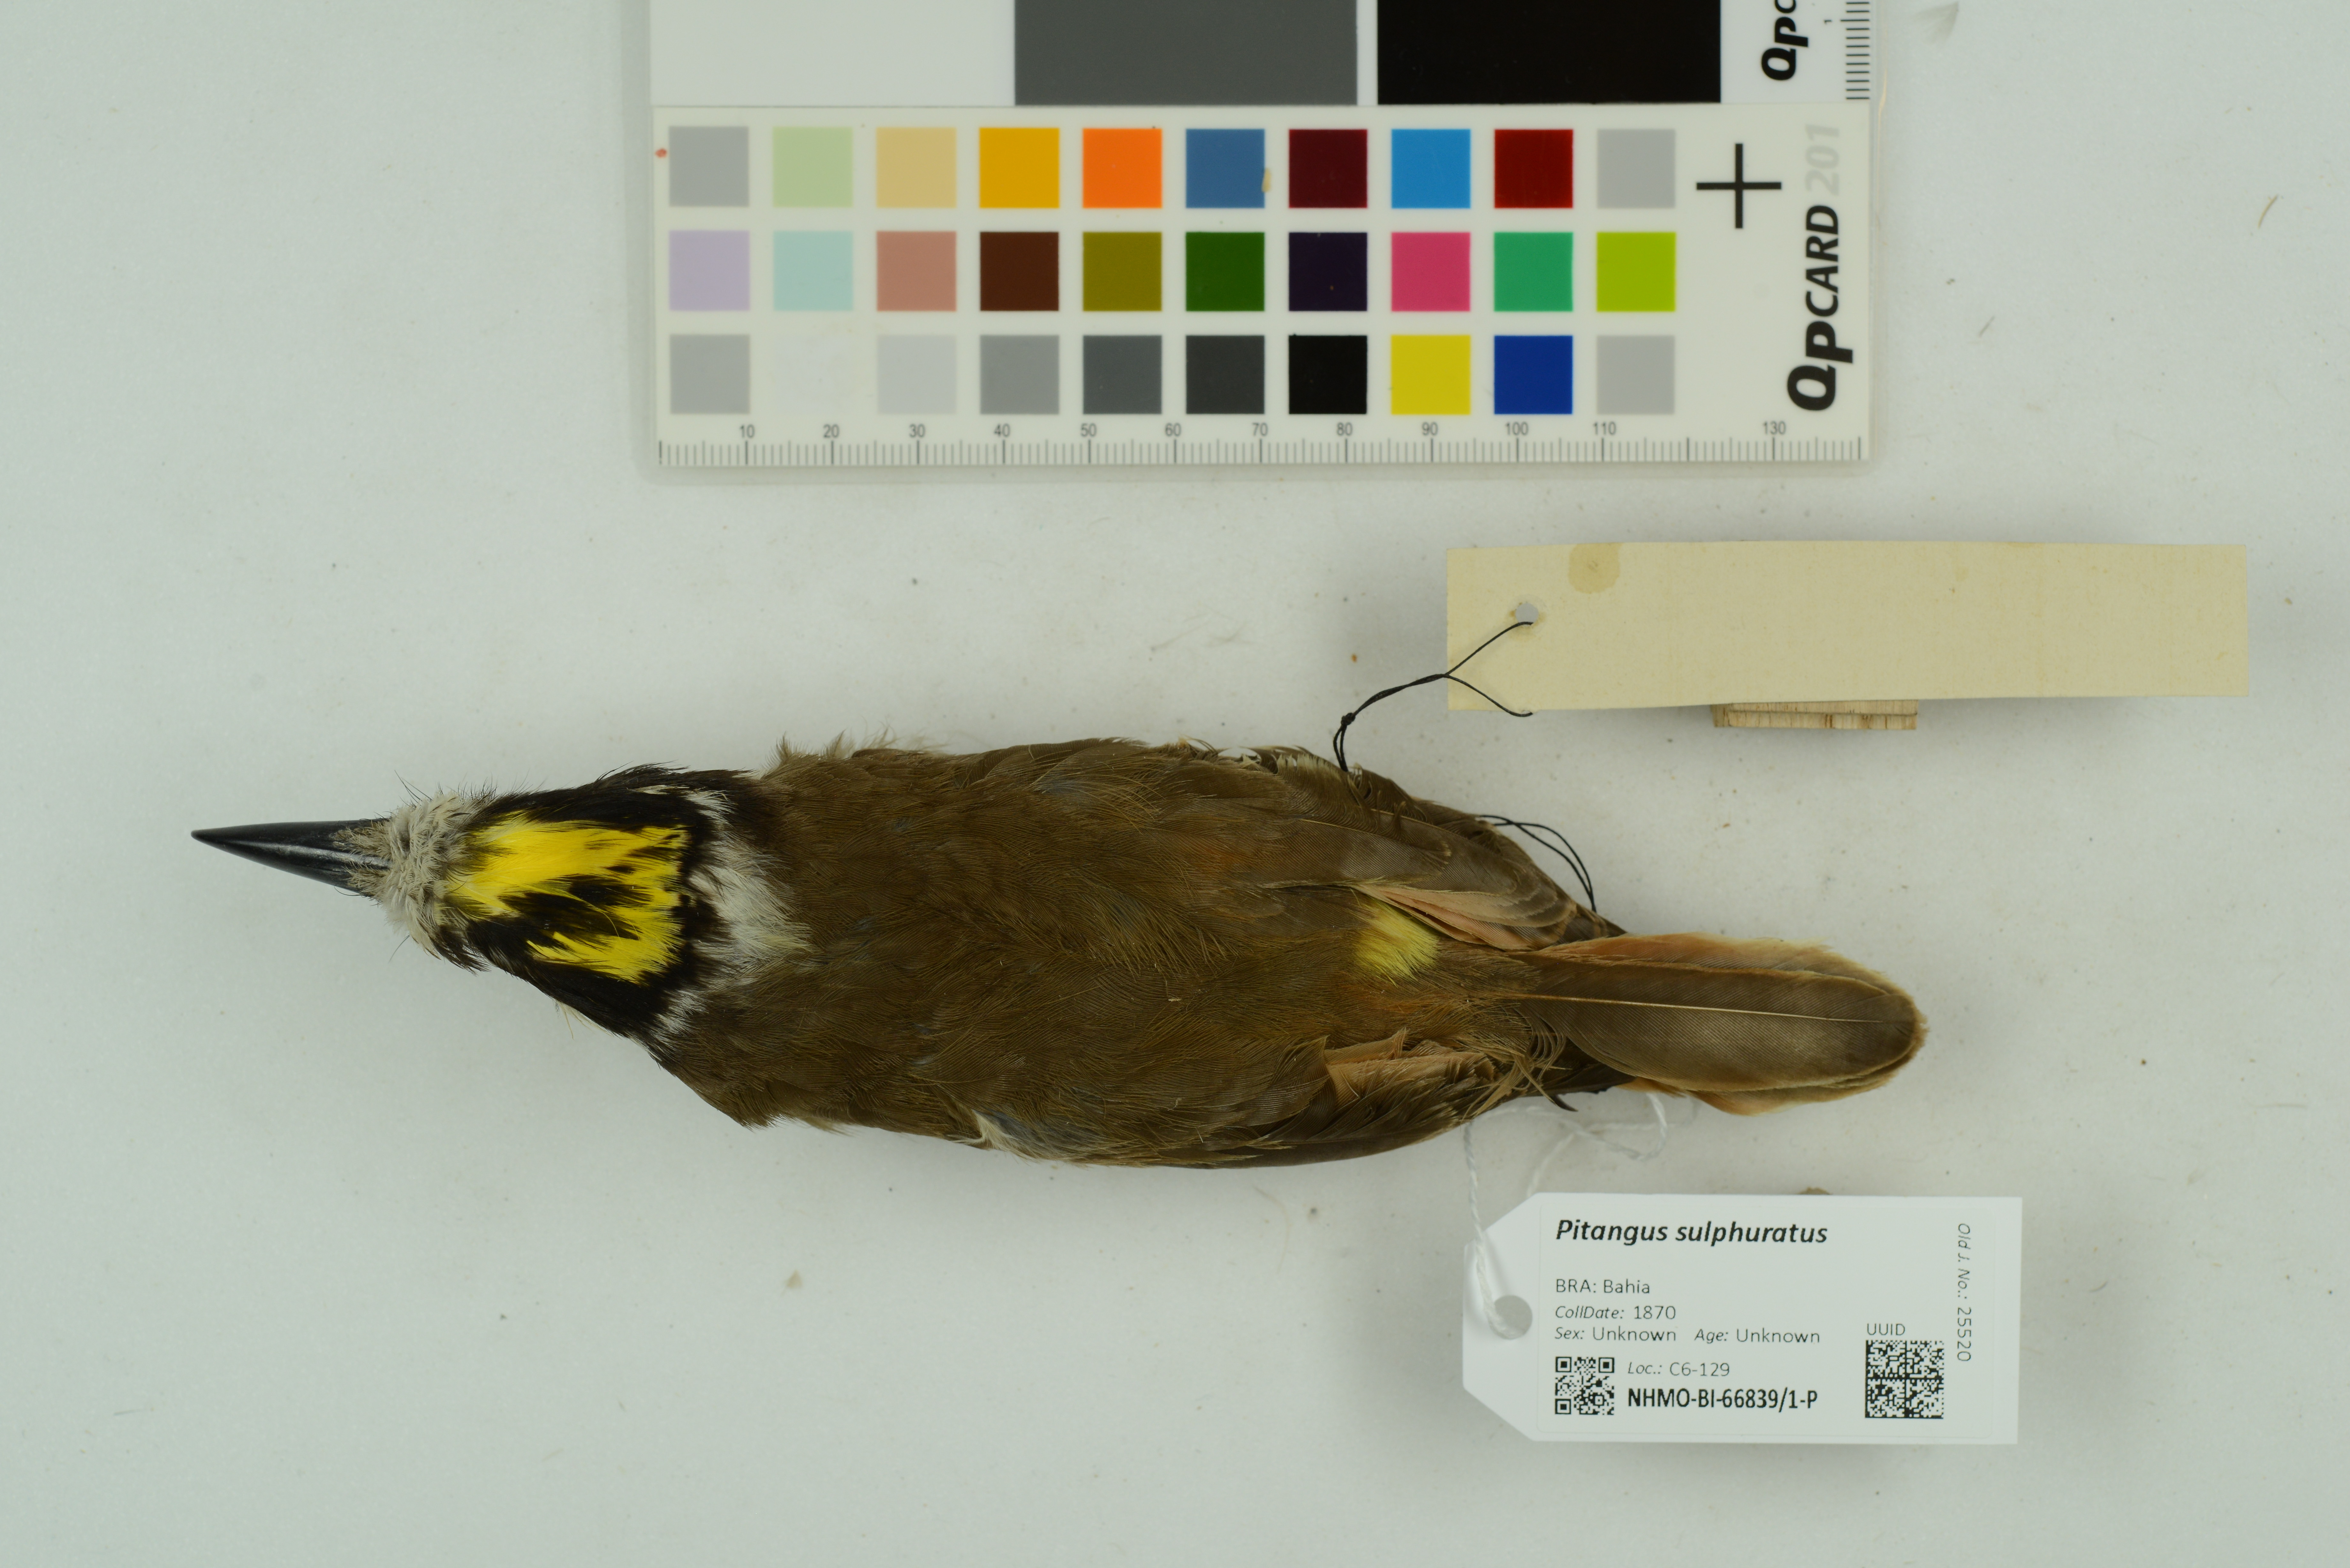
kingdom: Animalia
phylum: Chordata
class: Aves
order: Passeriformes
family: Tyrannidae
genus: Pitangus
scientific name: Pitangus sulphuratus
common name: Great kiskadee
